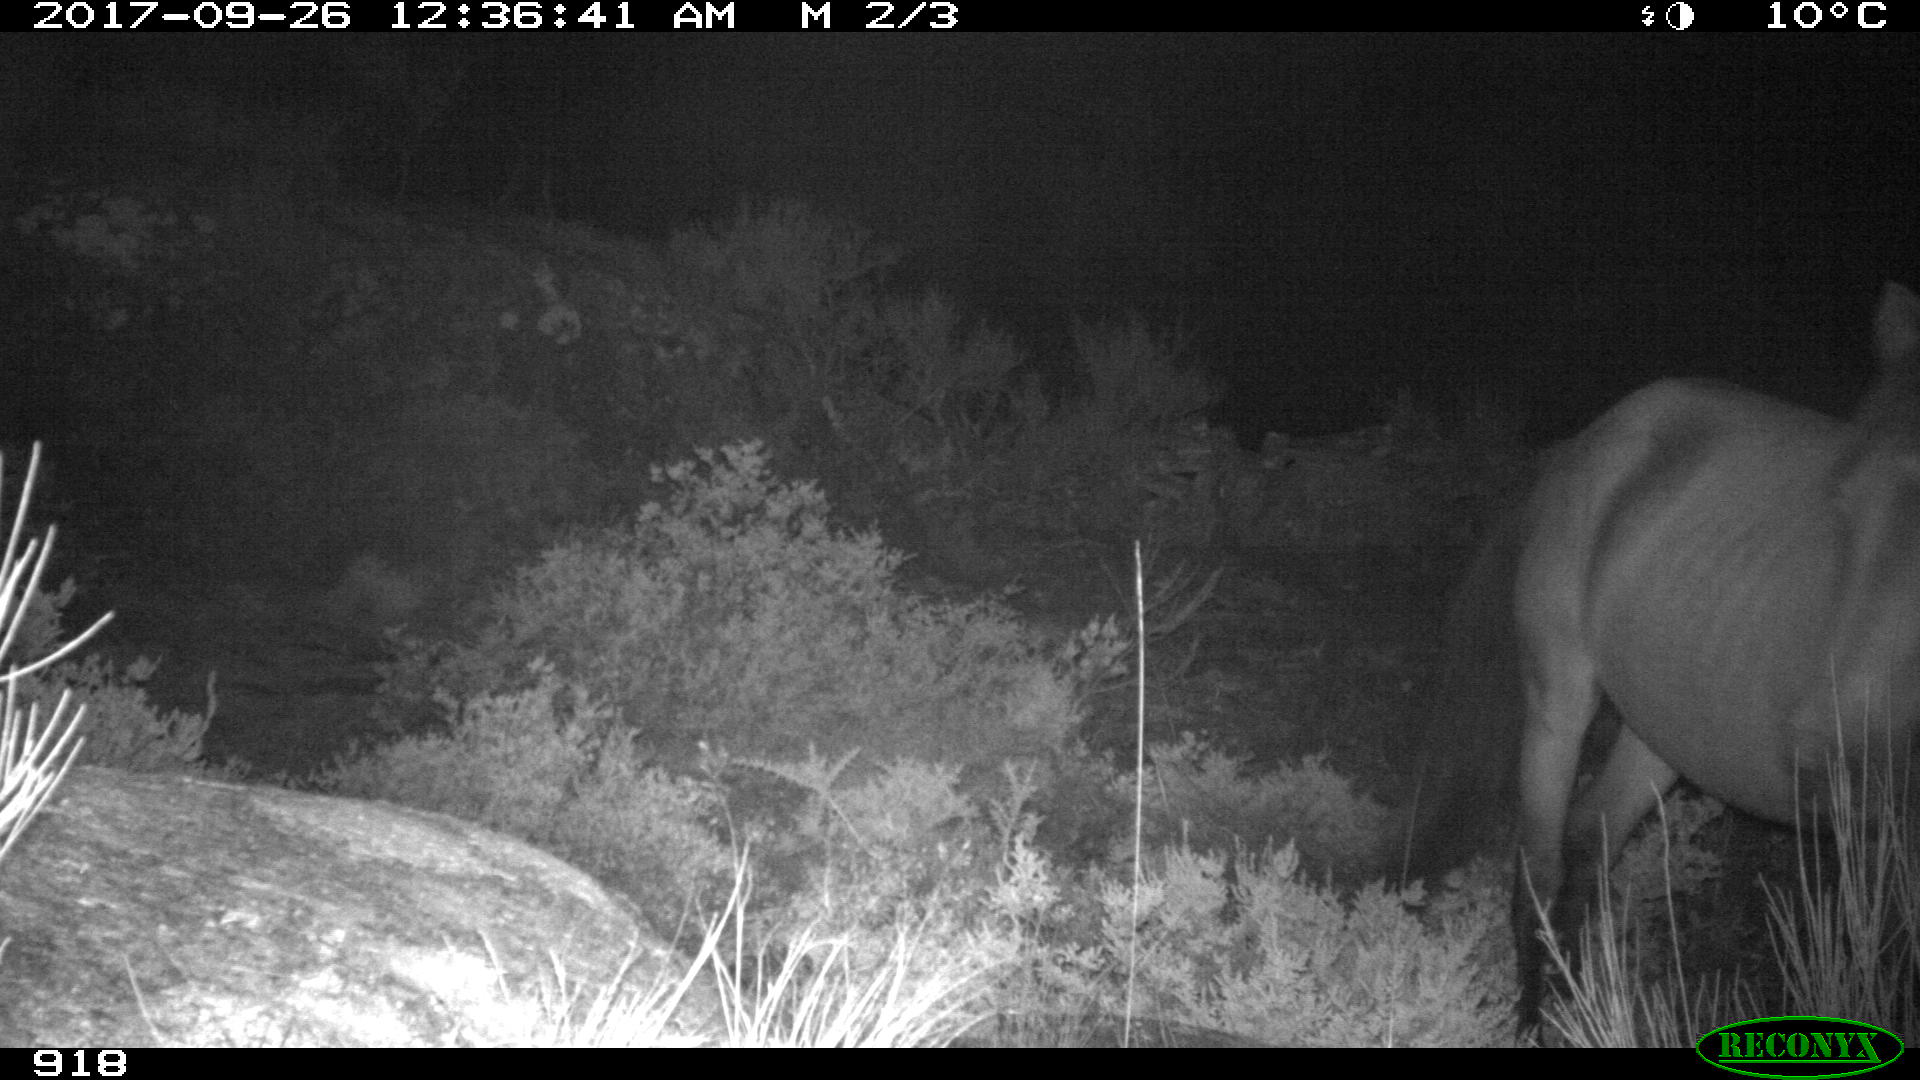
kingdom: Animalia
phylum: Chordata
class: Mammalia
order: Perissodactyla
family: Equidae
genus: Equus
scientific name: Equus caballus
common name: Horse
